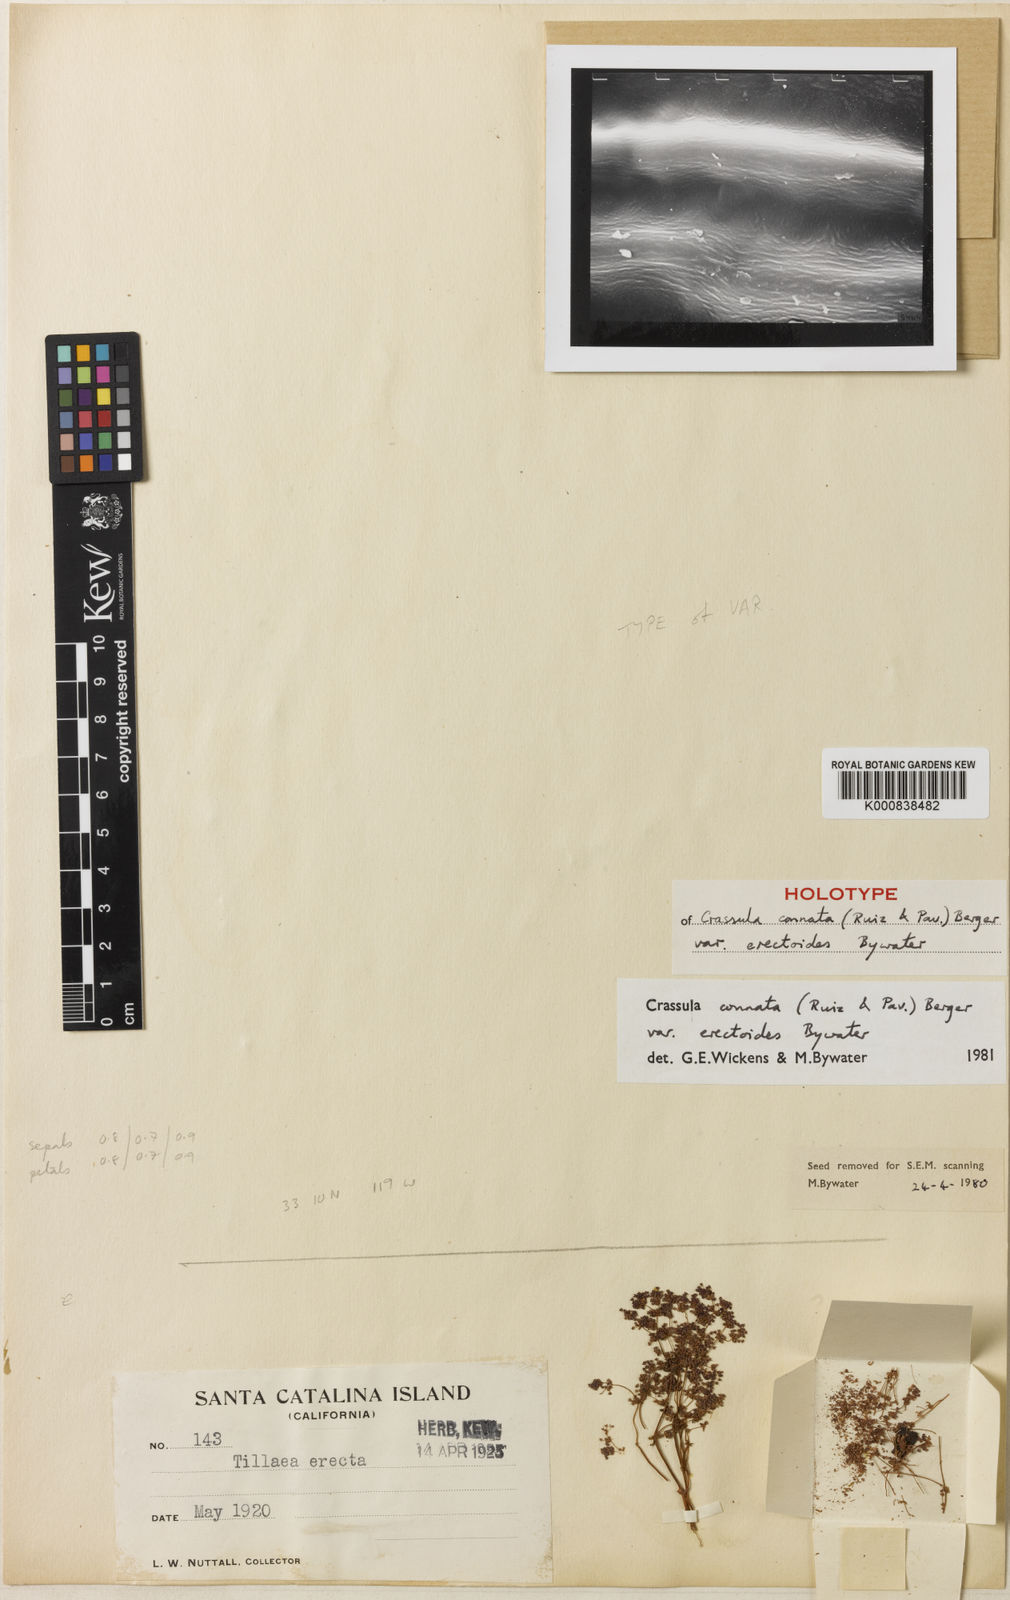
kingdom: Plantae
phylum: Tracheophyta
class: Magnoliopsida
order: Saxifragales
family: Crassulaceae
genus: Crassula
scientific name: Crassula connata
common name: Erect pygmyweed
